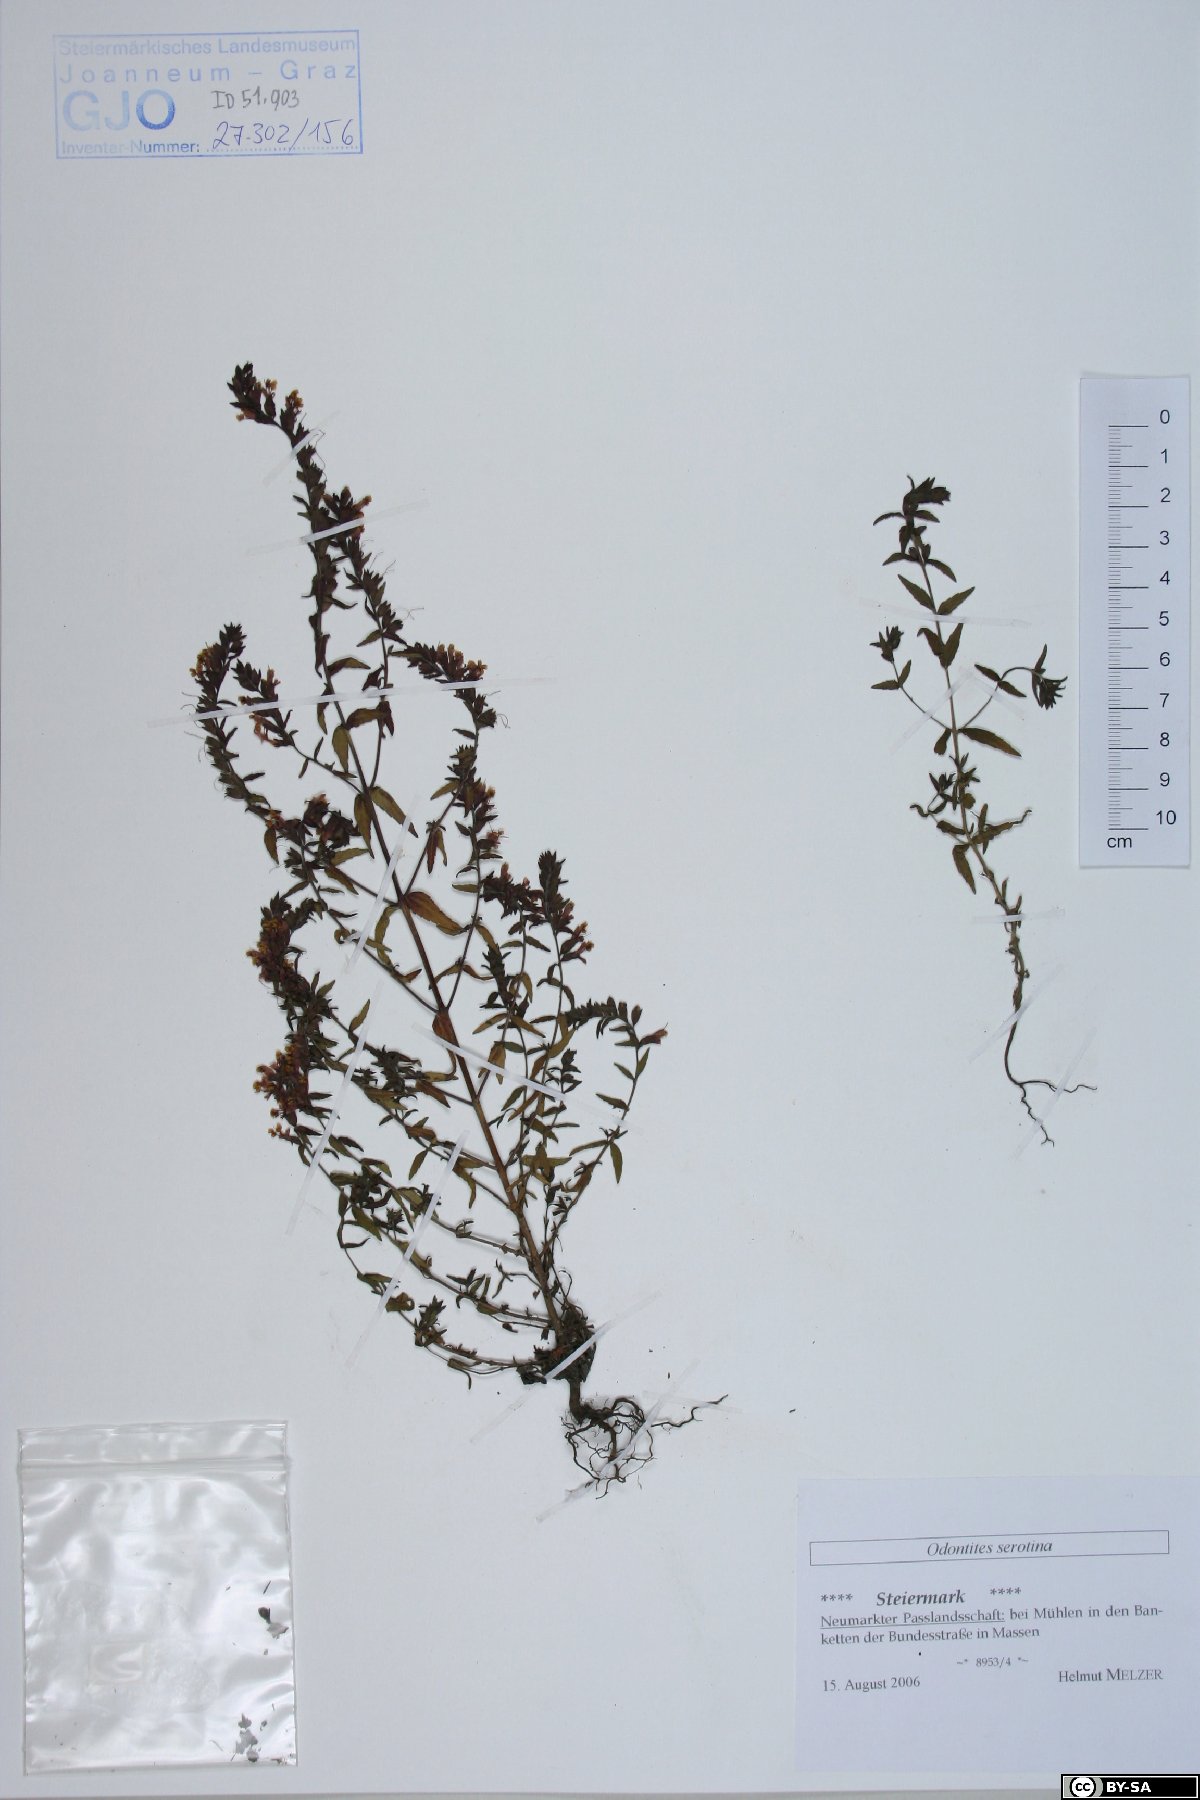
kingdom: Plantae
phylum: Tracheophyta
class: Magnoliopsida
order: Lamiales
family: Orobanchaceae
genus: Odontites
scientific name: Odontites vulgaris
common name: Broomrape
